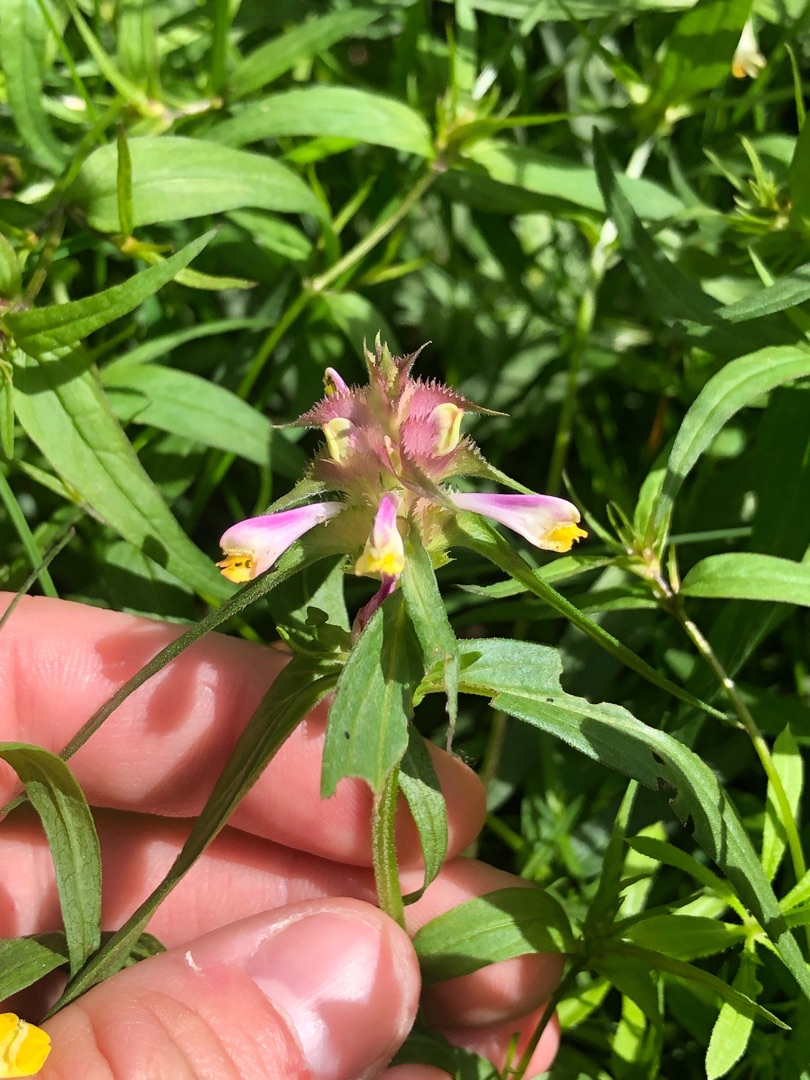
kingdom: Plantae
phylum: Tracheophyta
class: Magnoliopsida
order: Lamiales
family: Orobanchaceae
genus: Melampyrum
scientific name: Melampyrum cristatum
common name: Kantet kohvede
